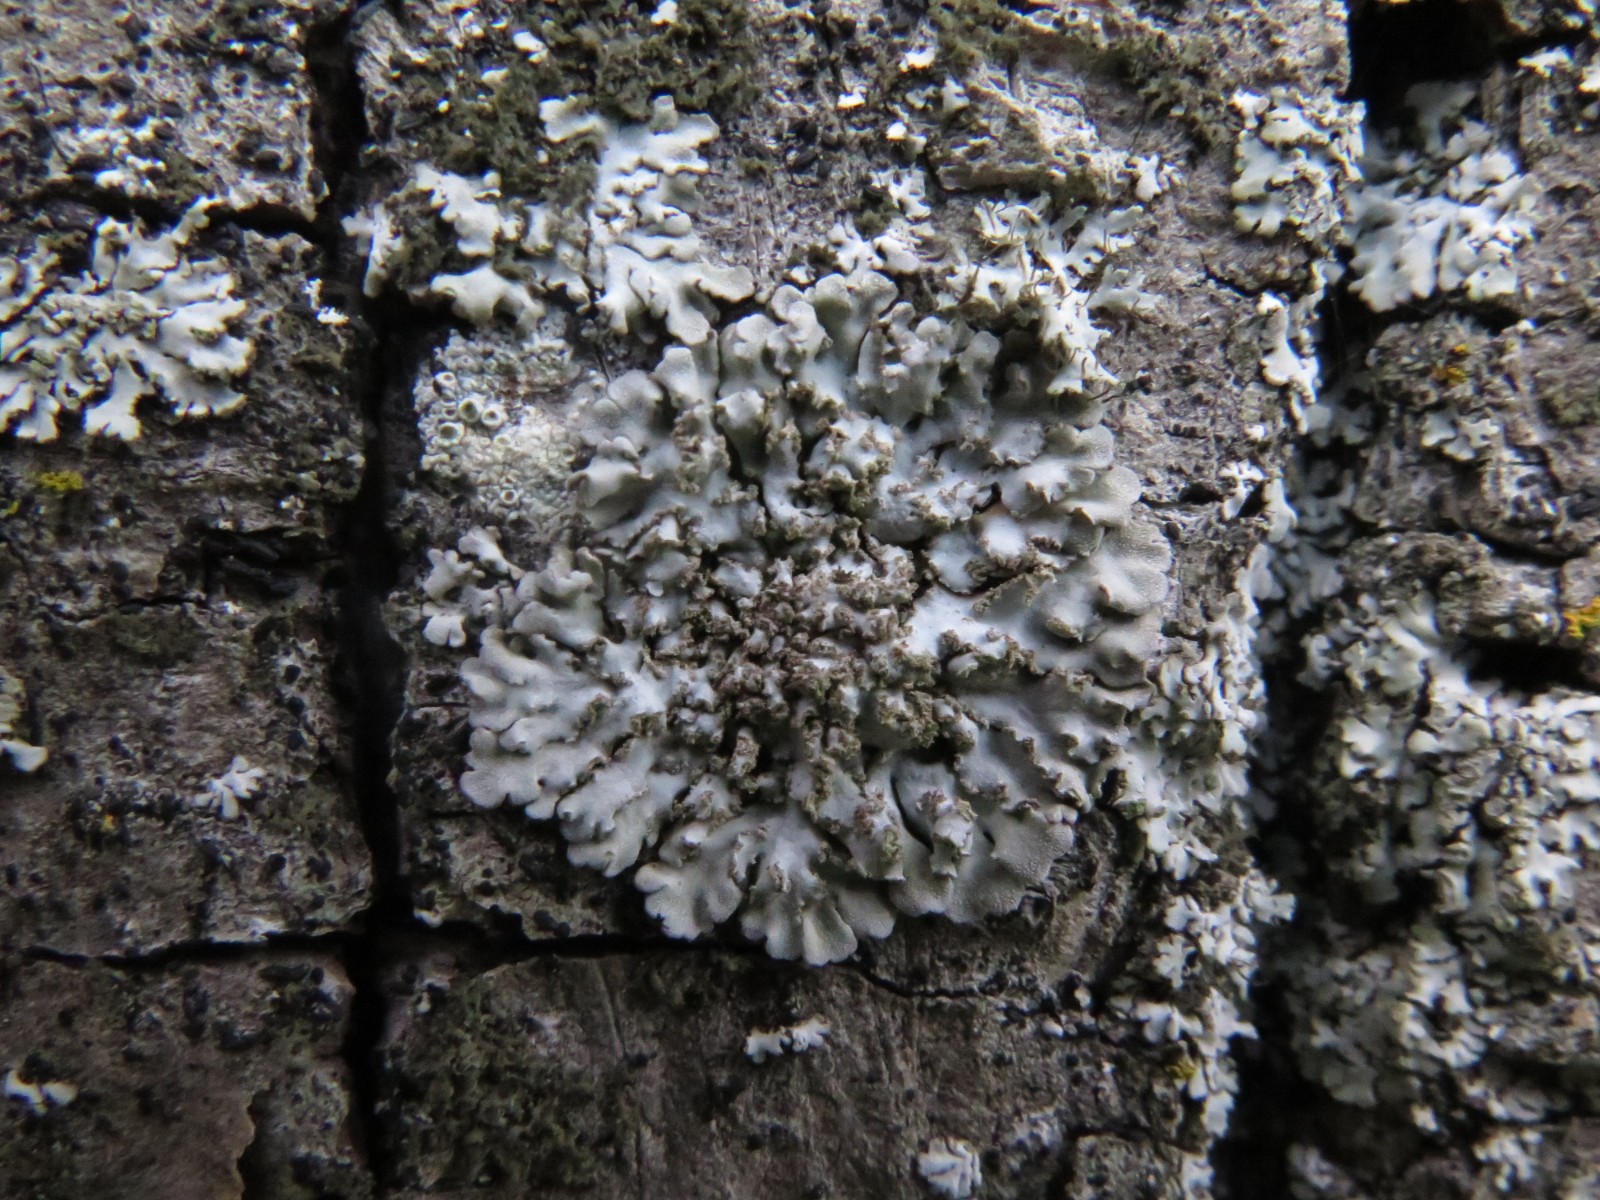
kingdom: Fungi
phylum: Ascomycota
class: Lecanoromycetes
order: Caliciales
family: Physciaceae
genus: Physconia
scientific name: Physconia enteroxantha
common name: grynet dugrosetlav
